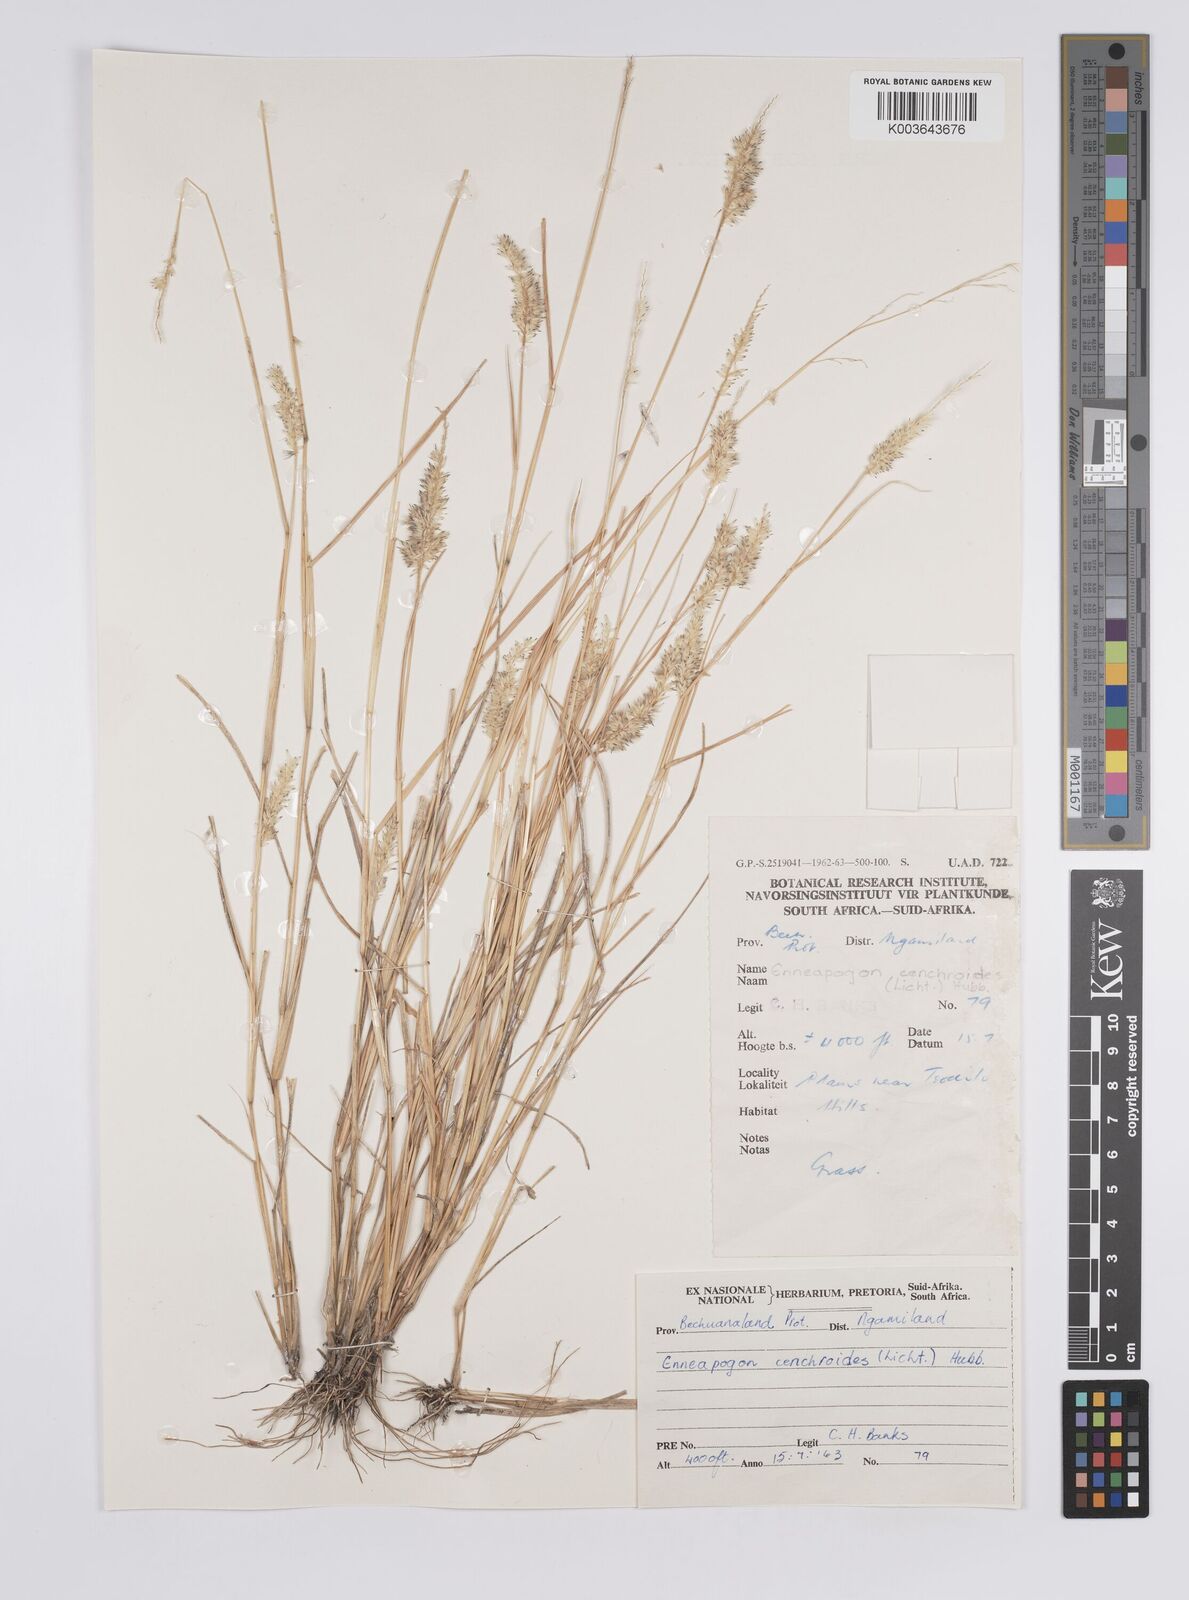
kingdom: Plantae
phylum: Tracheophyta
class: Liliopsida
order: Poales
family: Poaceae
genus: Enneapogon
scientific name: Enneapogon cenchroides
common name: Soft feather pappusgrass
